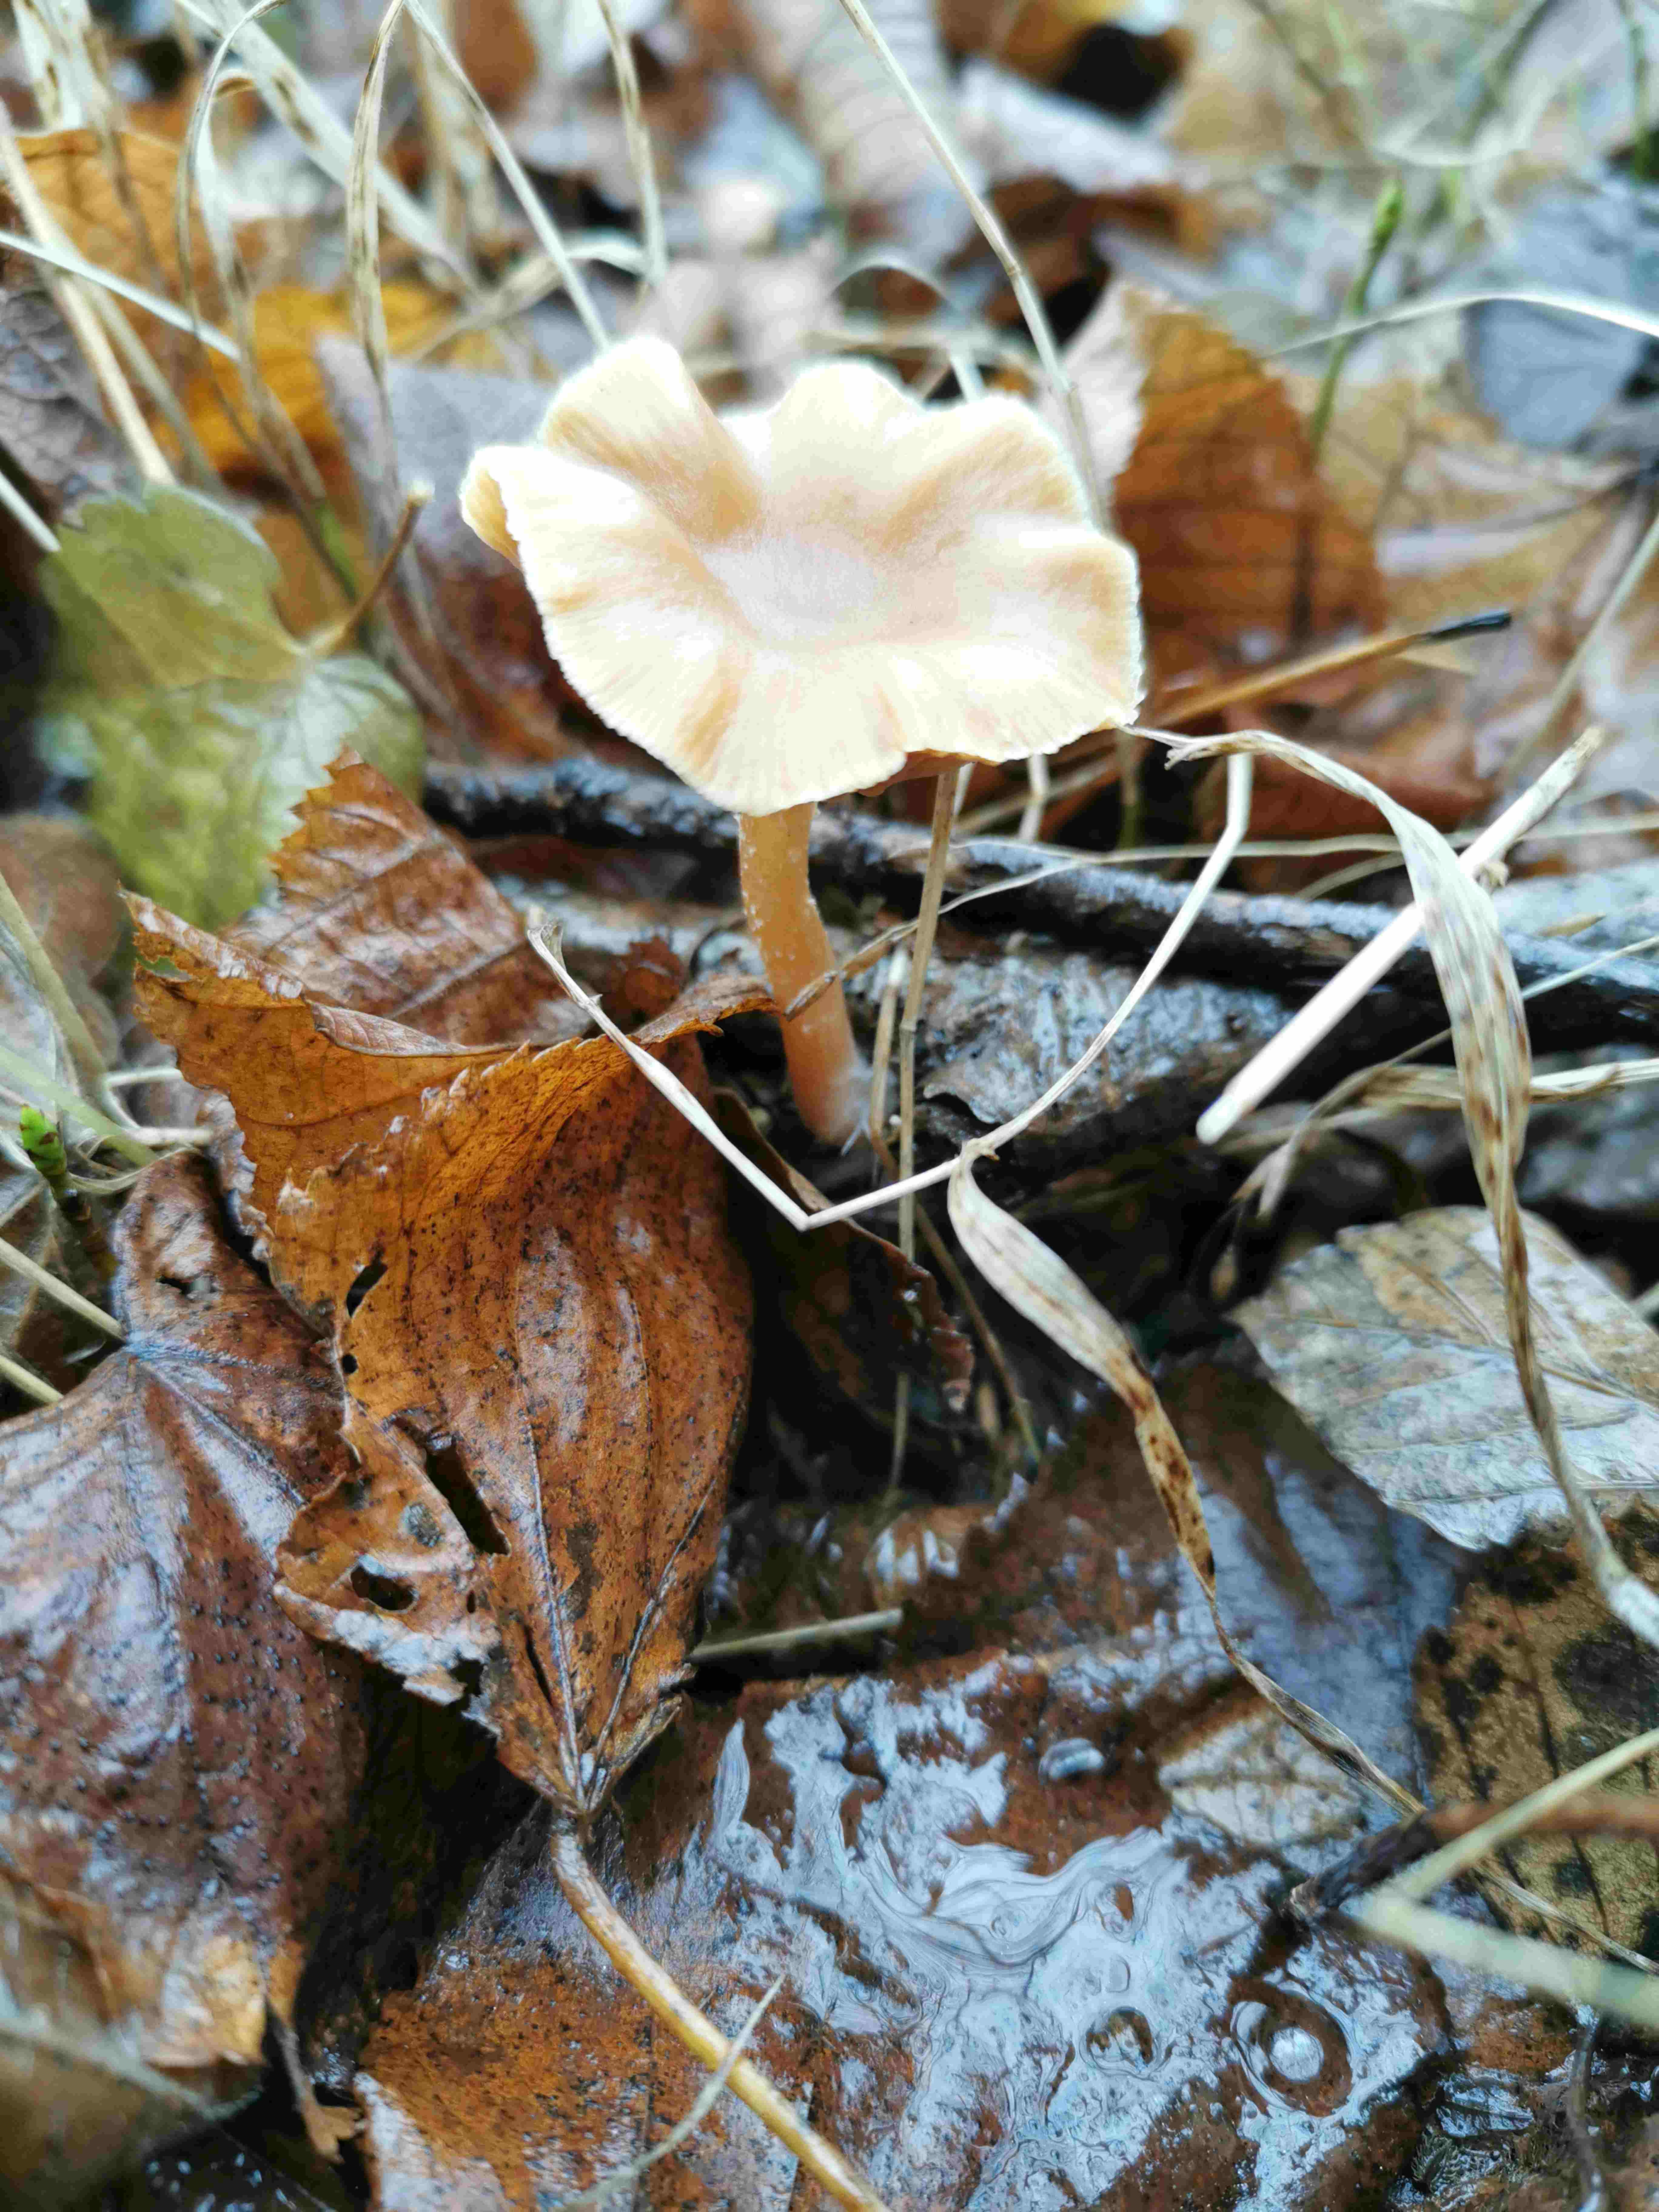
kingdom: Fungi
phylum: Basidiomycota
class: Agaricomycetes
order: Agaricales
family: Strophariaceae
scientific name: Strophariaceae
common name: bredbladfamilien
